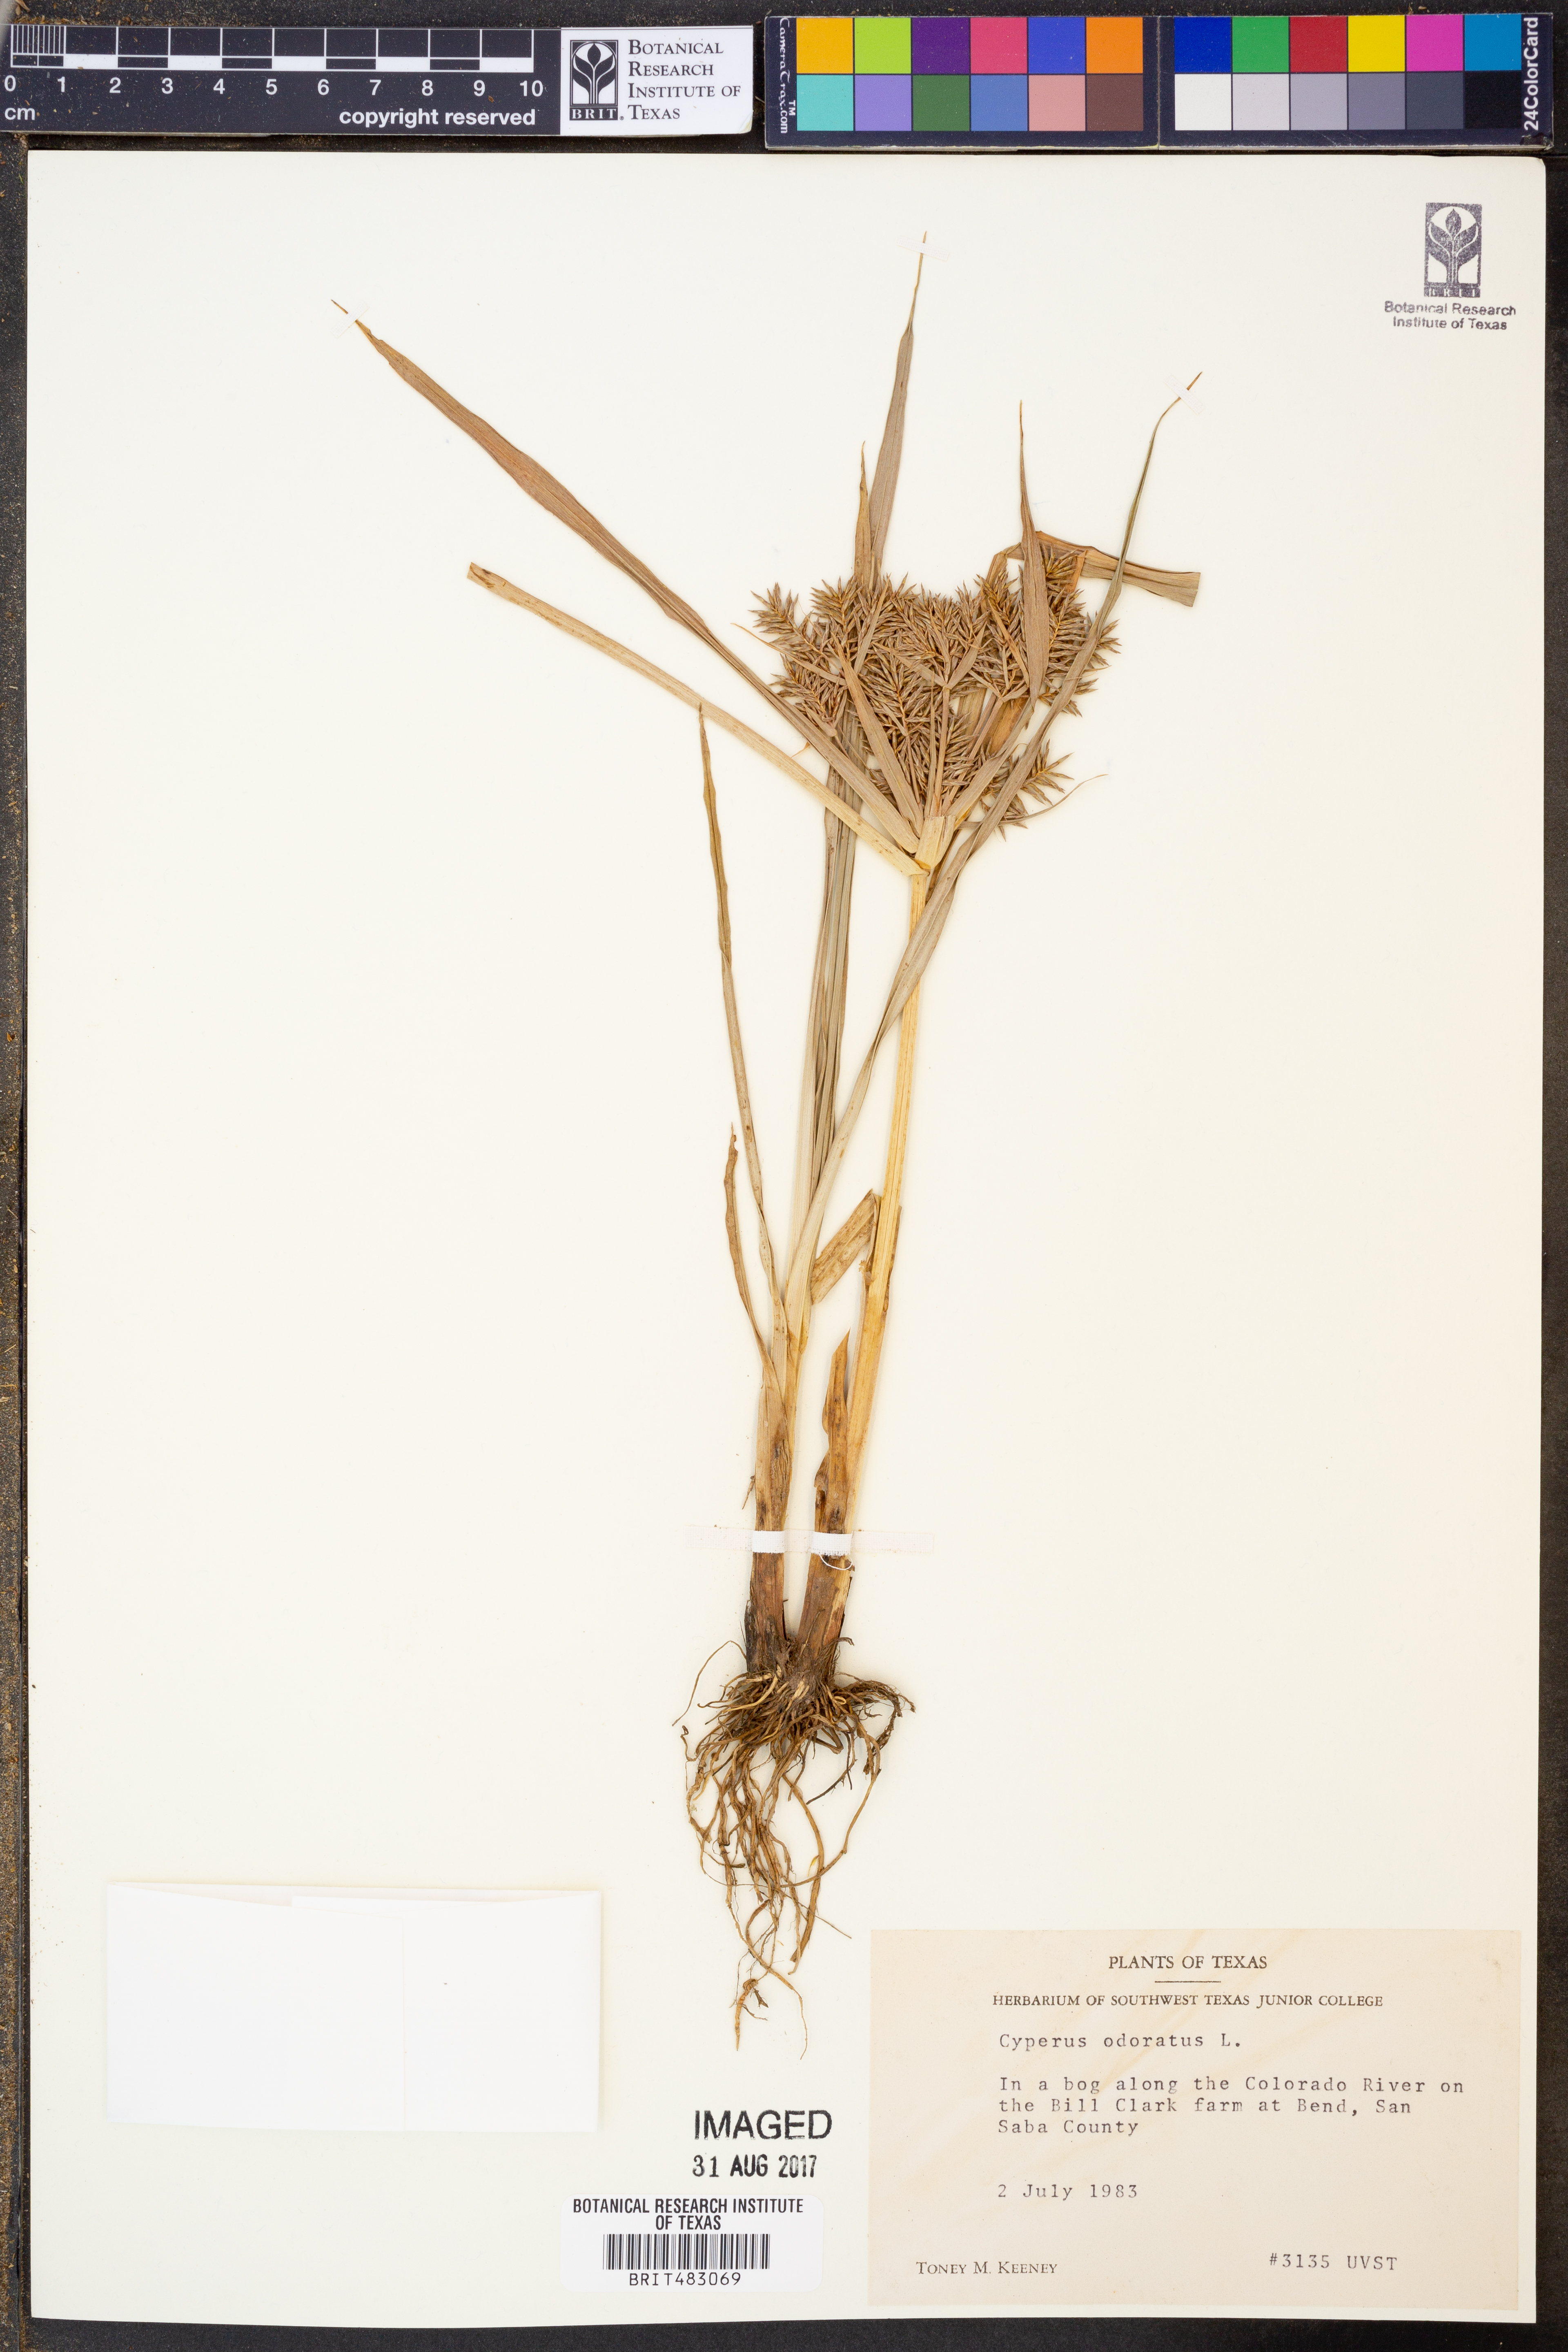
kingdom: Plantae
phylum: Tracheophyta
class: Liliopsida
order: Poales
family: Cyperaceae
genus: Cyperus
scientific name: Cyperus odoratus
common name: Fragrant flatsedge
